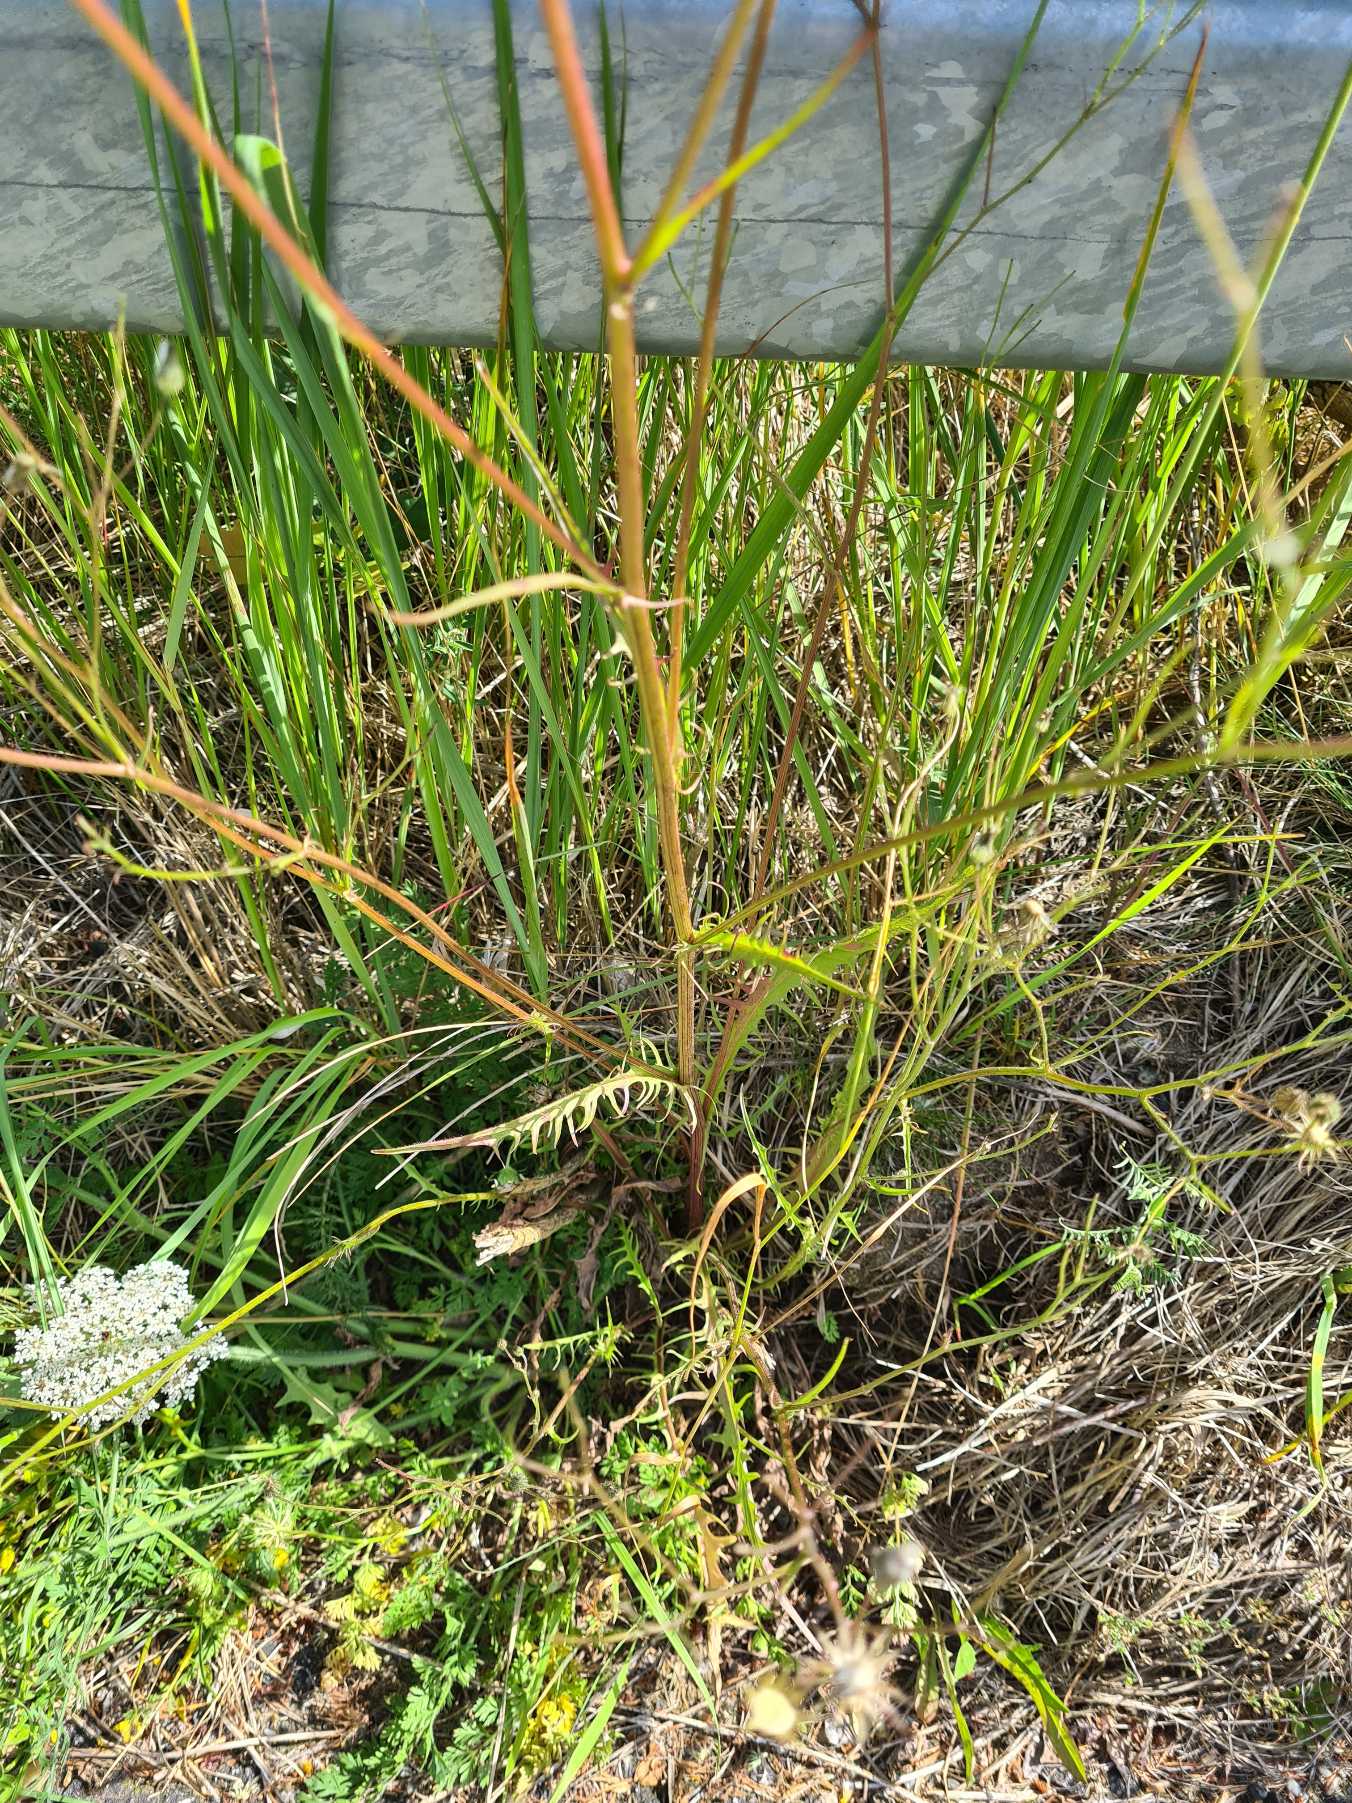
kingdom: Plantae
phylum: Tracheophyta
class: Magnoliopsida
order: Asterales
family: Asteraceae
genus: Crepis
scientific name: Crepis capillaris
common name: Grøn høgeskæg
